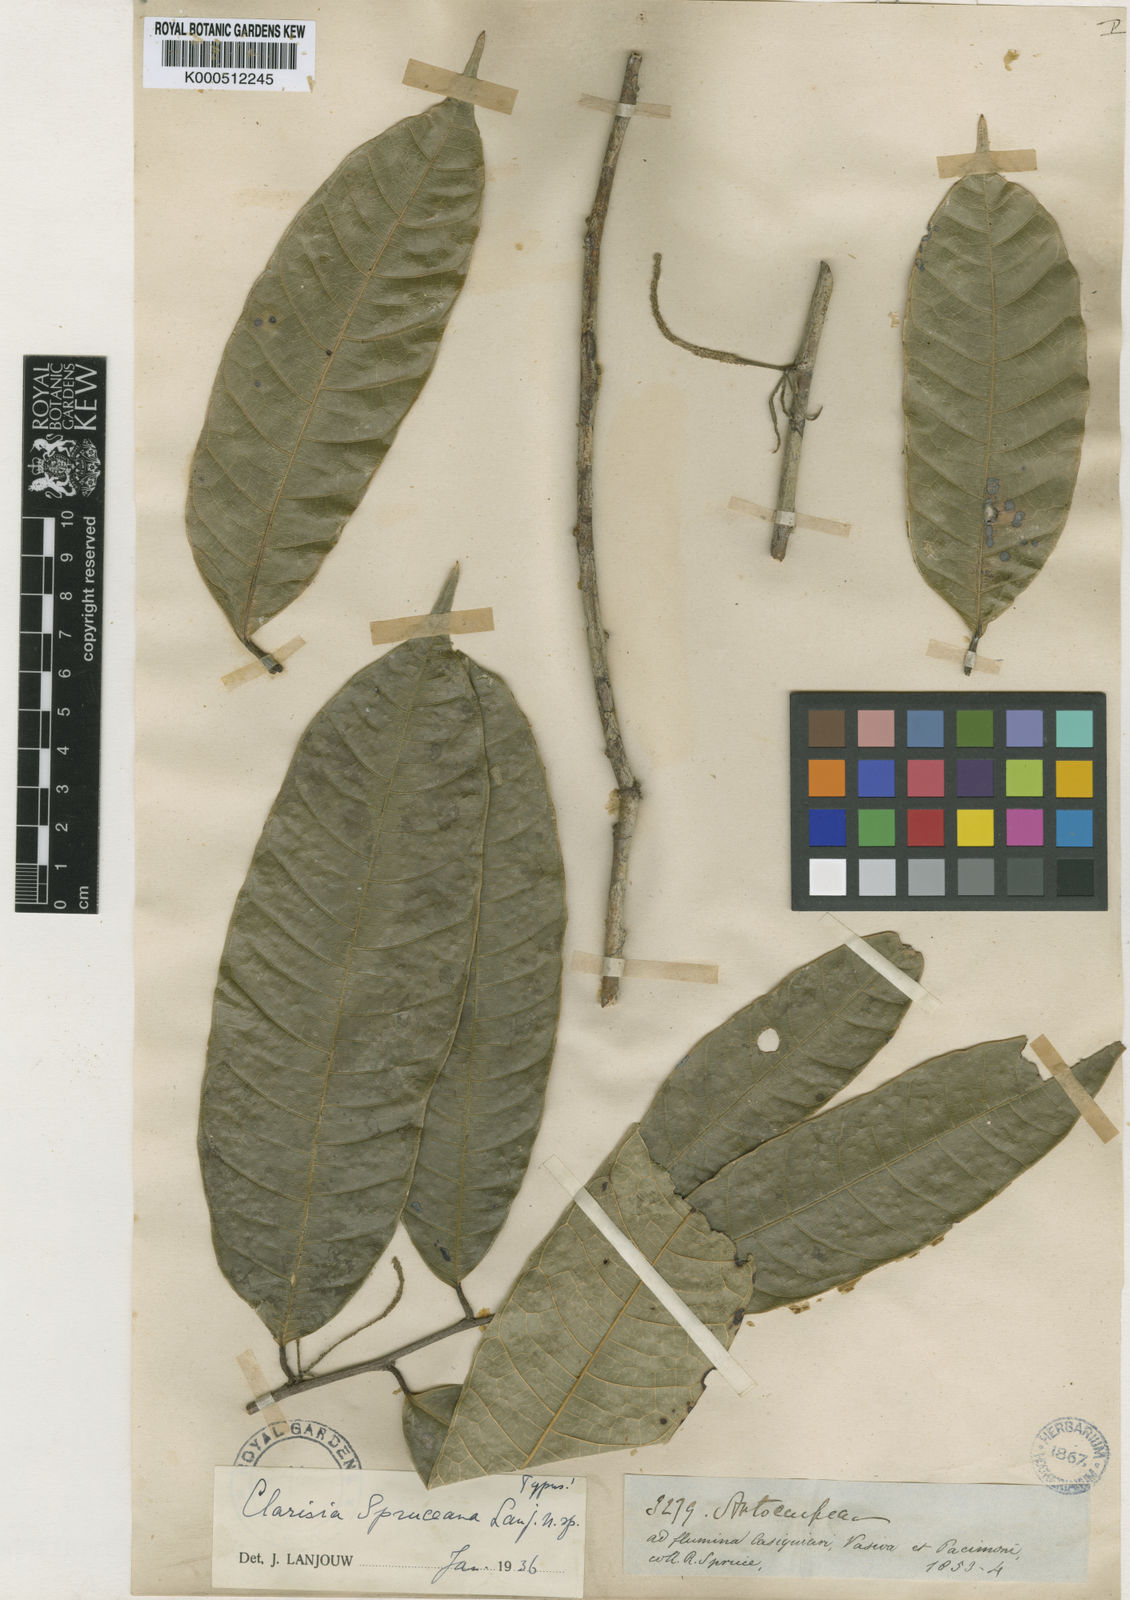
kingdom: Plantae
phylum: Tracheophyta
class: Magnoliopsida
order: Rosales
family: Moraceae
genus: Clarisia
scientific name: Clarisia ilicifolia
